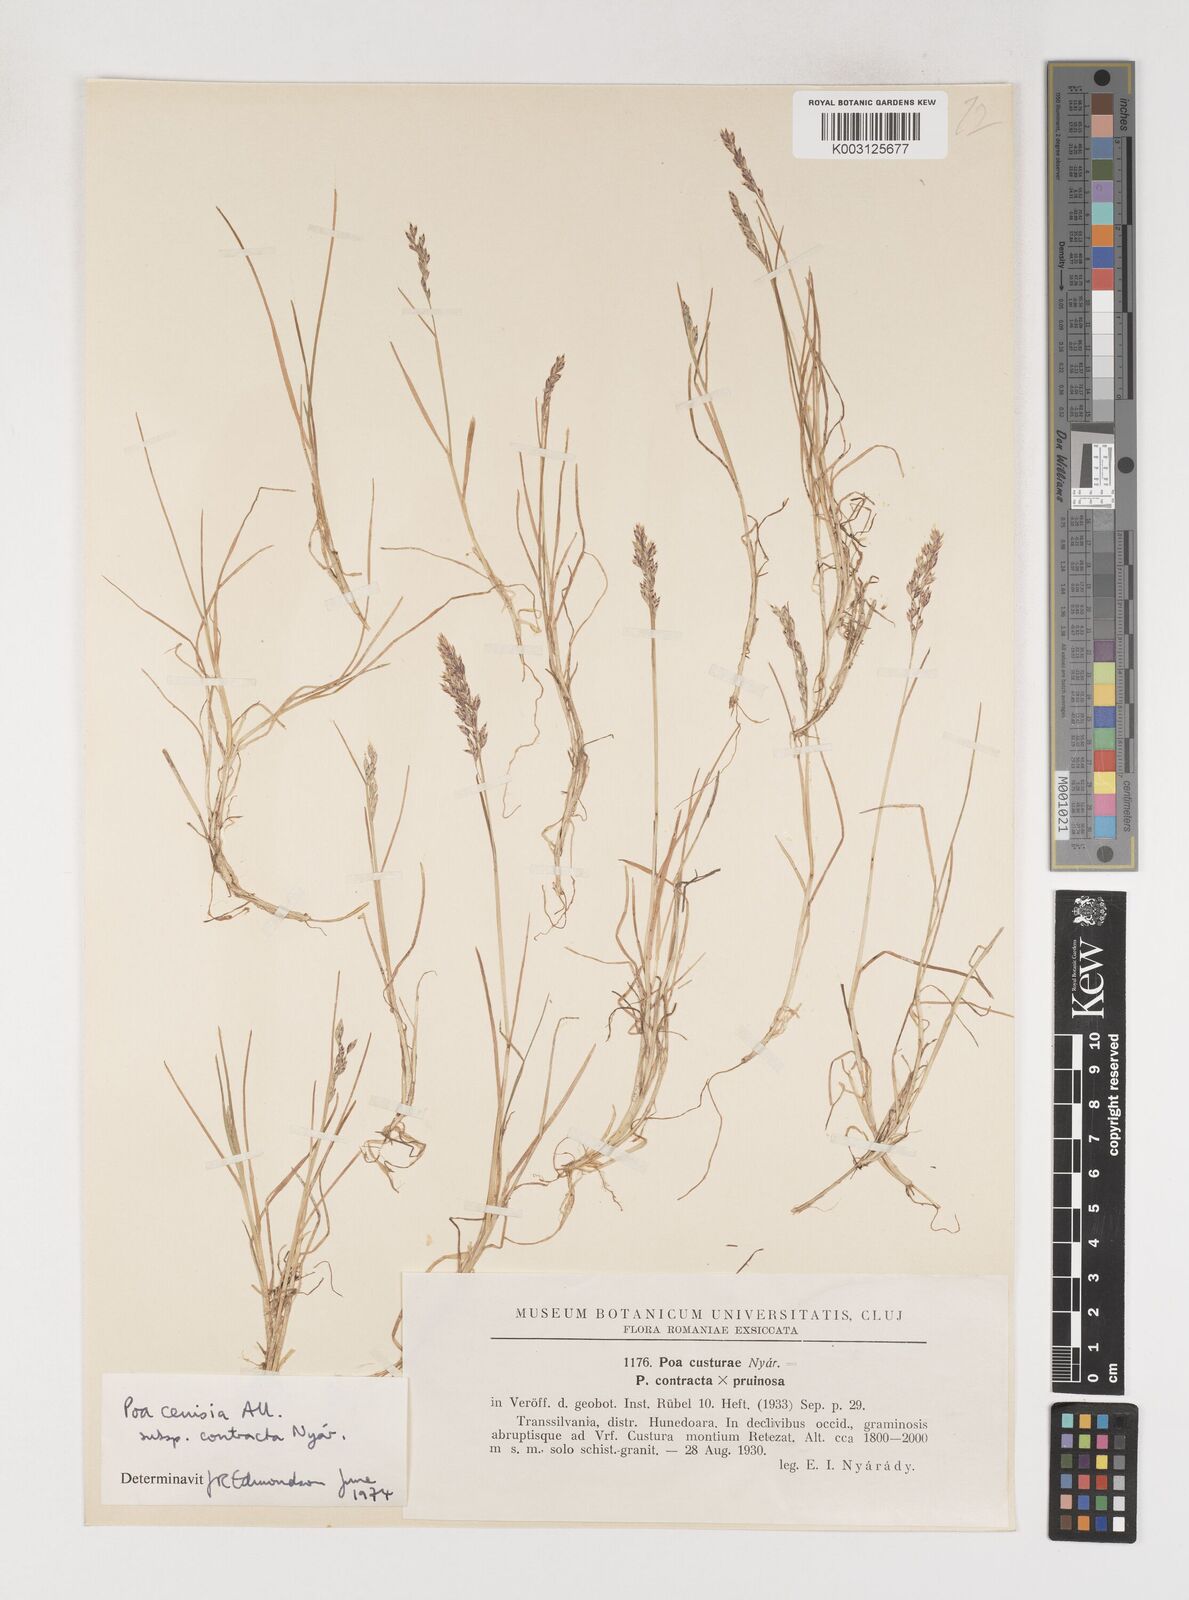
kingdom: Plantae
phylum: Tracheophyta
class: Liliopsida
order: Poales
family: Poaceae
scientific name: Poaceae
